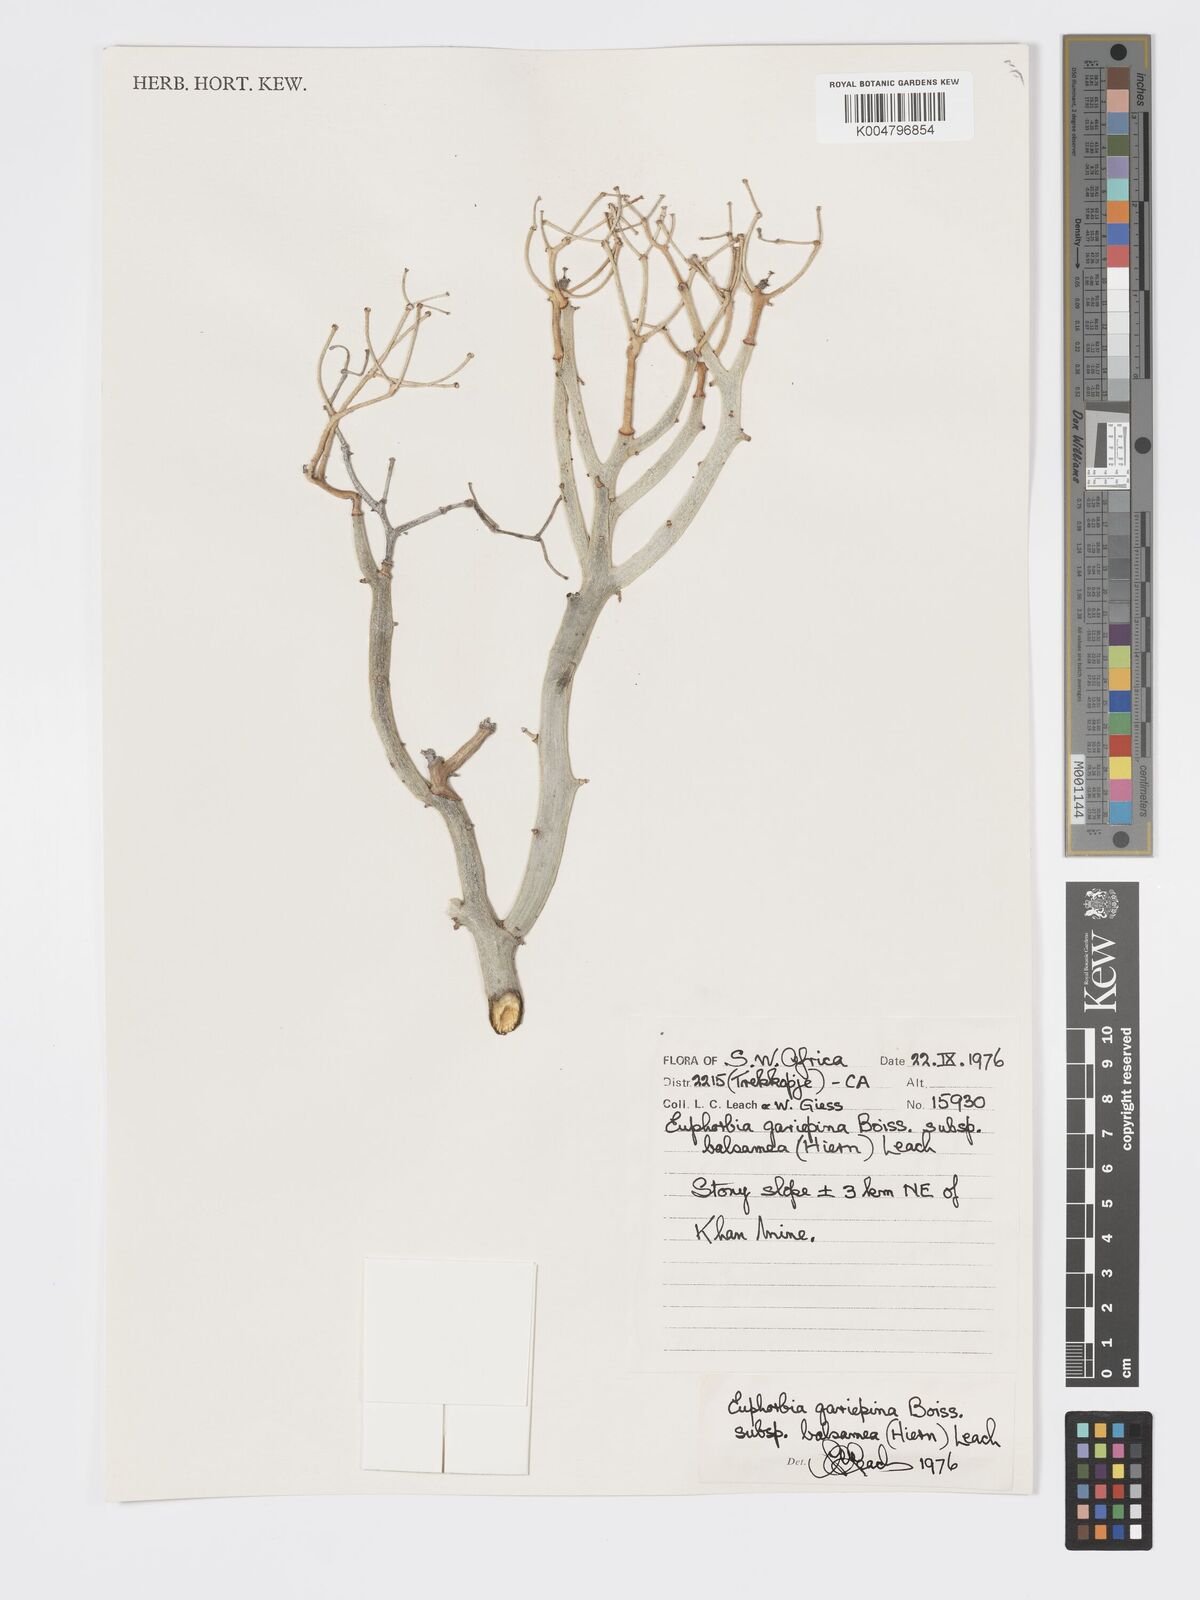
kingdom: Plantae
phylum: Tracheophyta
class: Magnoliopsida
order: Malpighiales
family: Euphorbiaceae
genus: Euphorbia
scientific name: Euphorbia gariepina
